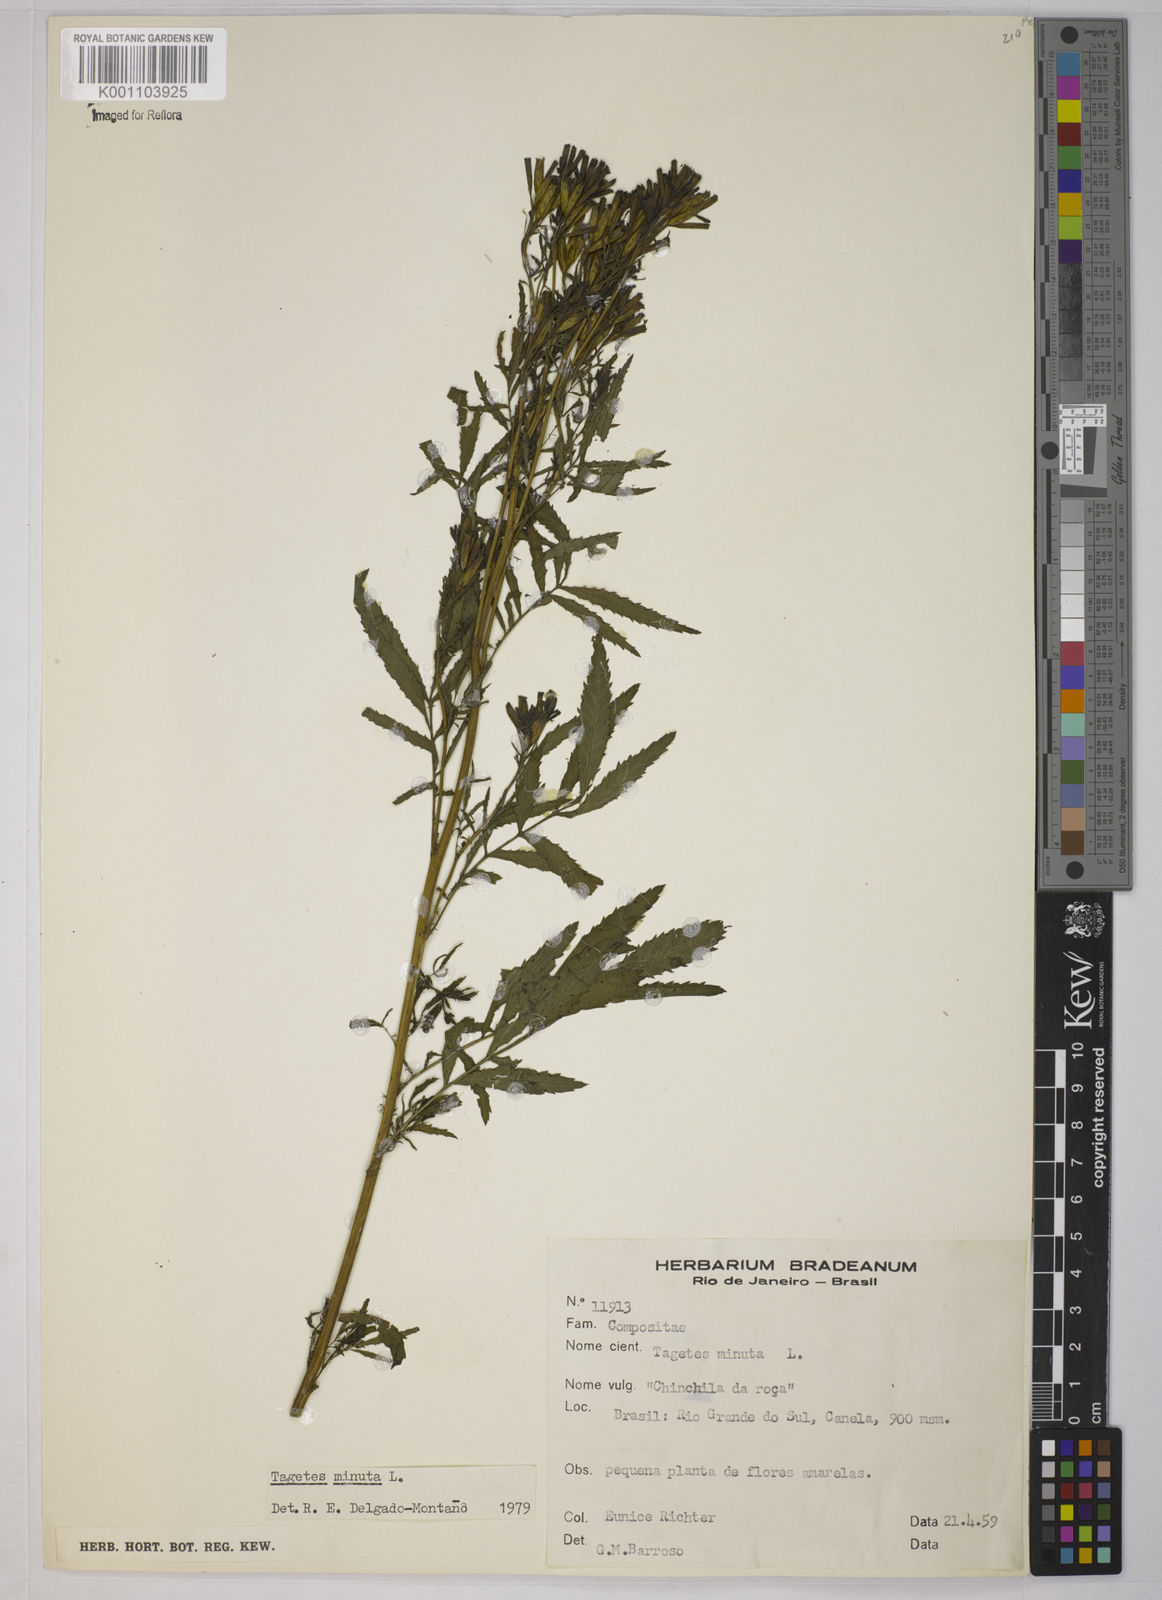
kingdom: Plantae
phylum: Tracheophyta
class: Magnoliopsida
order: Asterales
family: Asteraceae
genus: Tagetes
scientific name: Tagetes minuta
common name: Muster john henry
